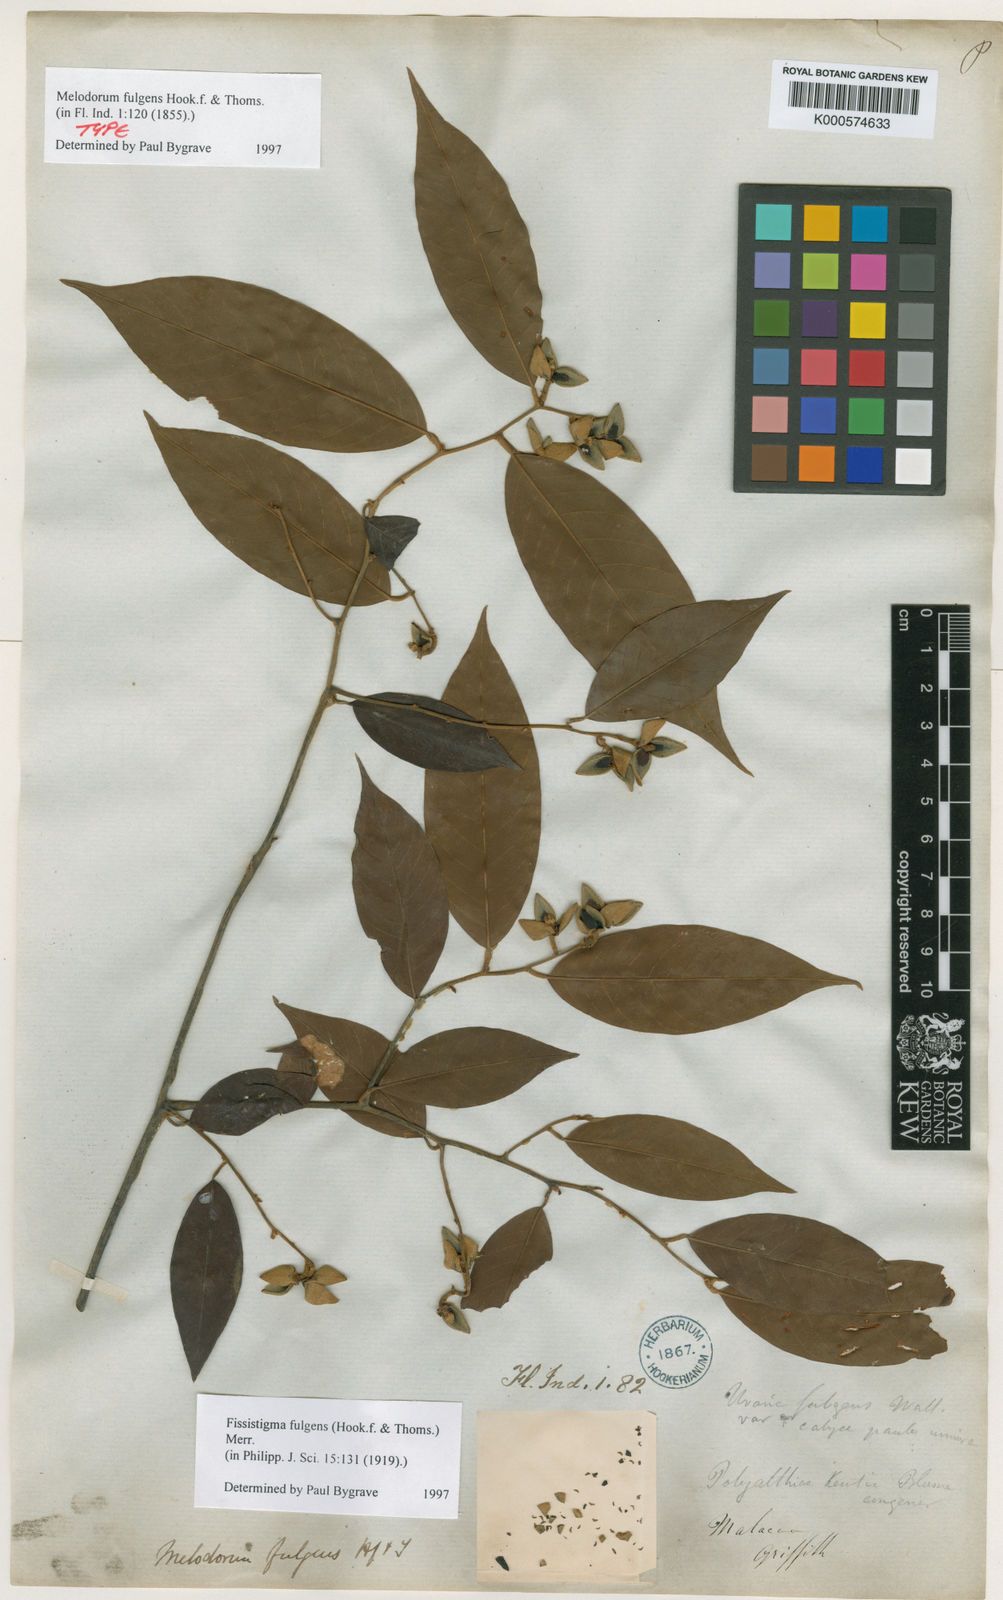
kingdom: Plantae
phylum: Tracheophyta
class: Magnoliopsida
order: Magnoliales
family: Annonaceae
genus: Fissistigma
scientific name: Fissistigma fulgens
